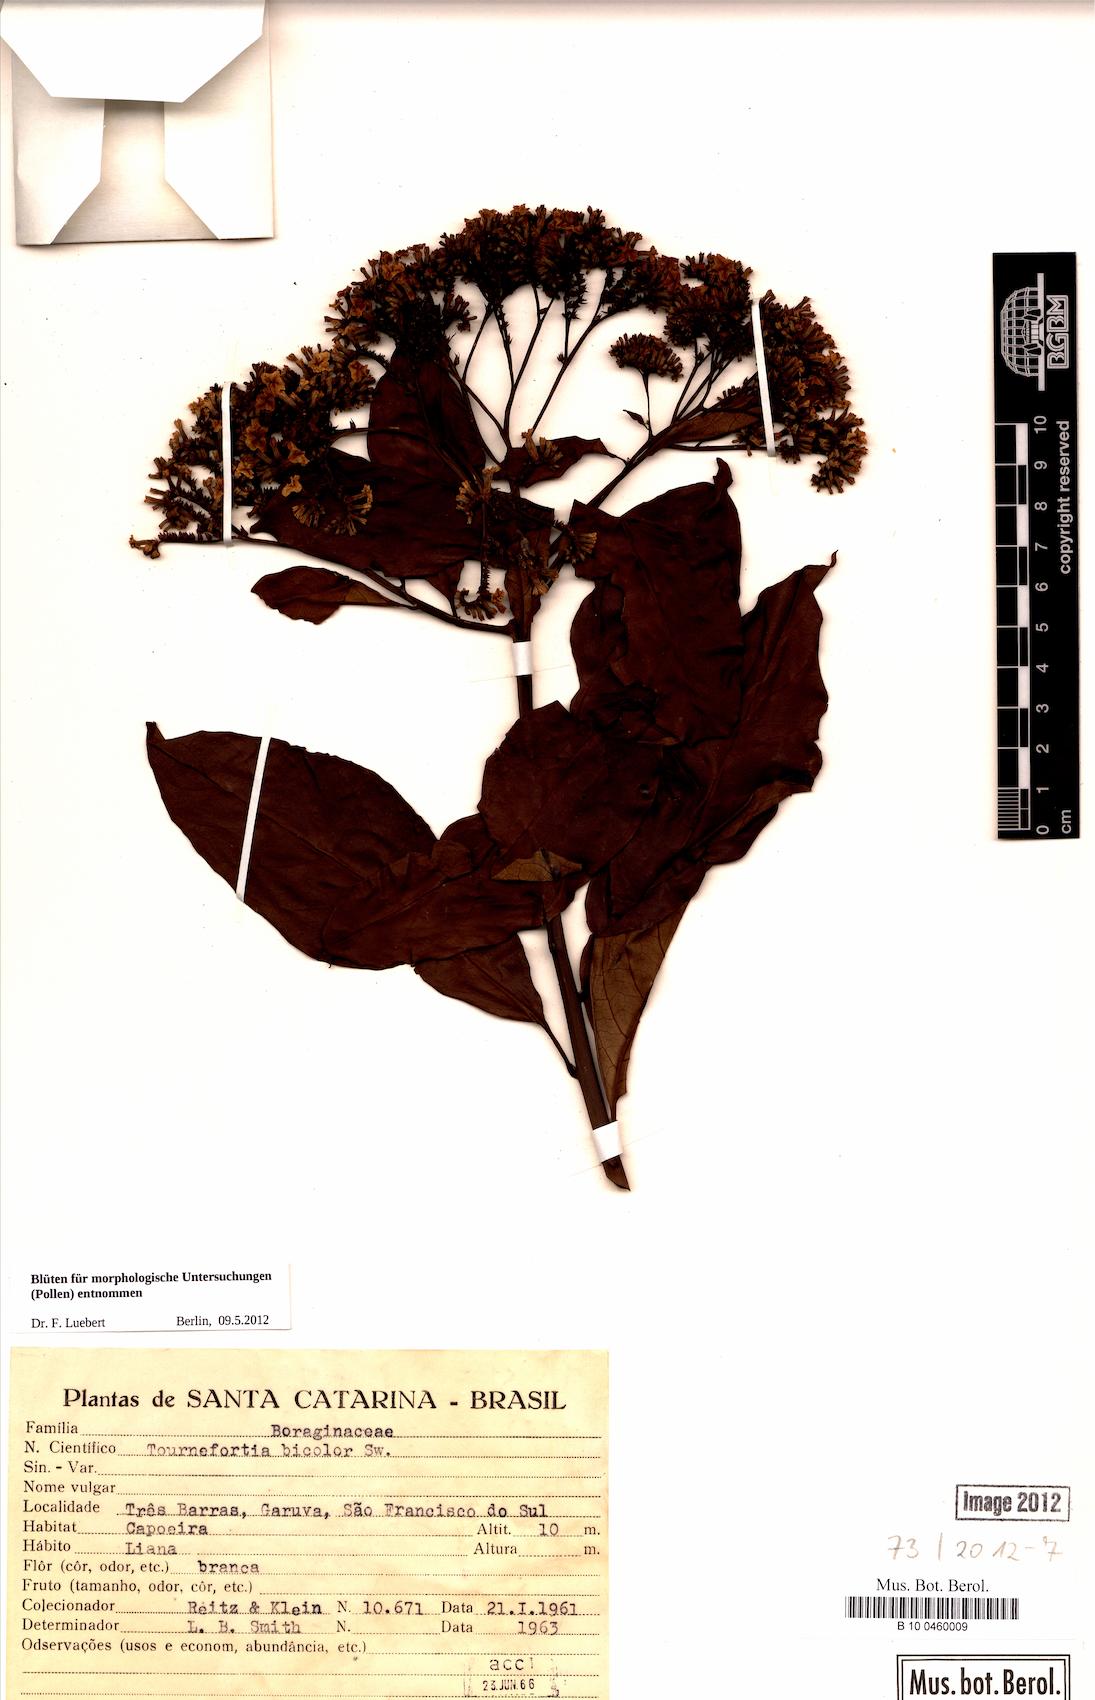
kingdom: Plantae
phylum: Tracheophyta
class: Magnoliopsida
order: Boraginales
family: Heliotropiaceae
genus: Heliotropium
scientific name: Heliotropium verdcourtii
